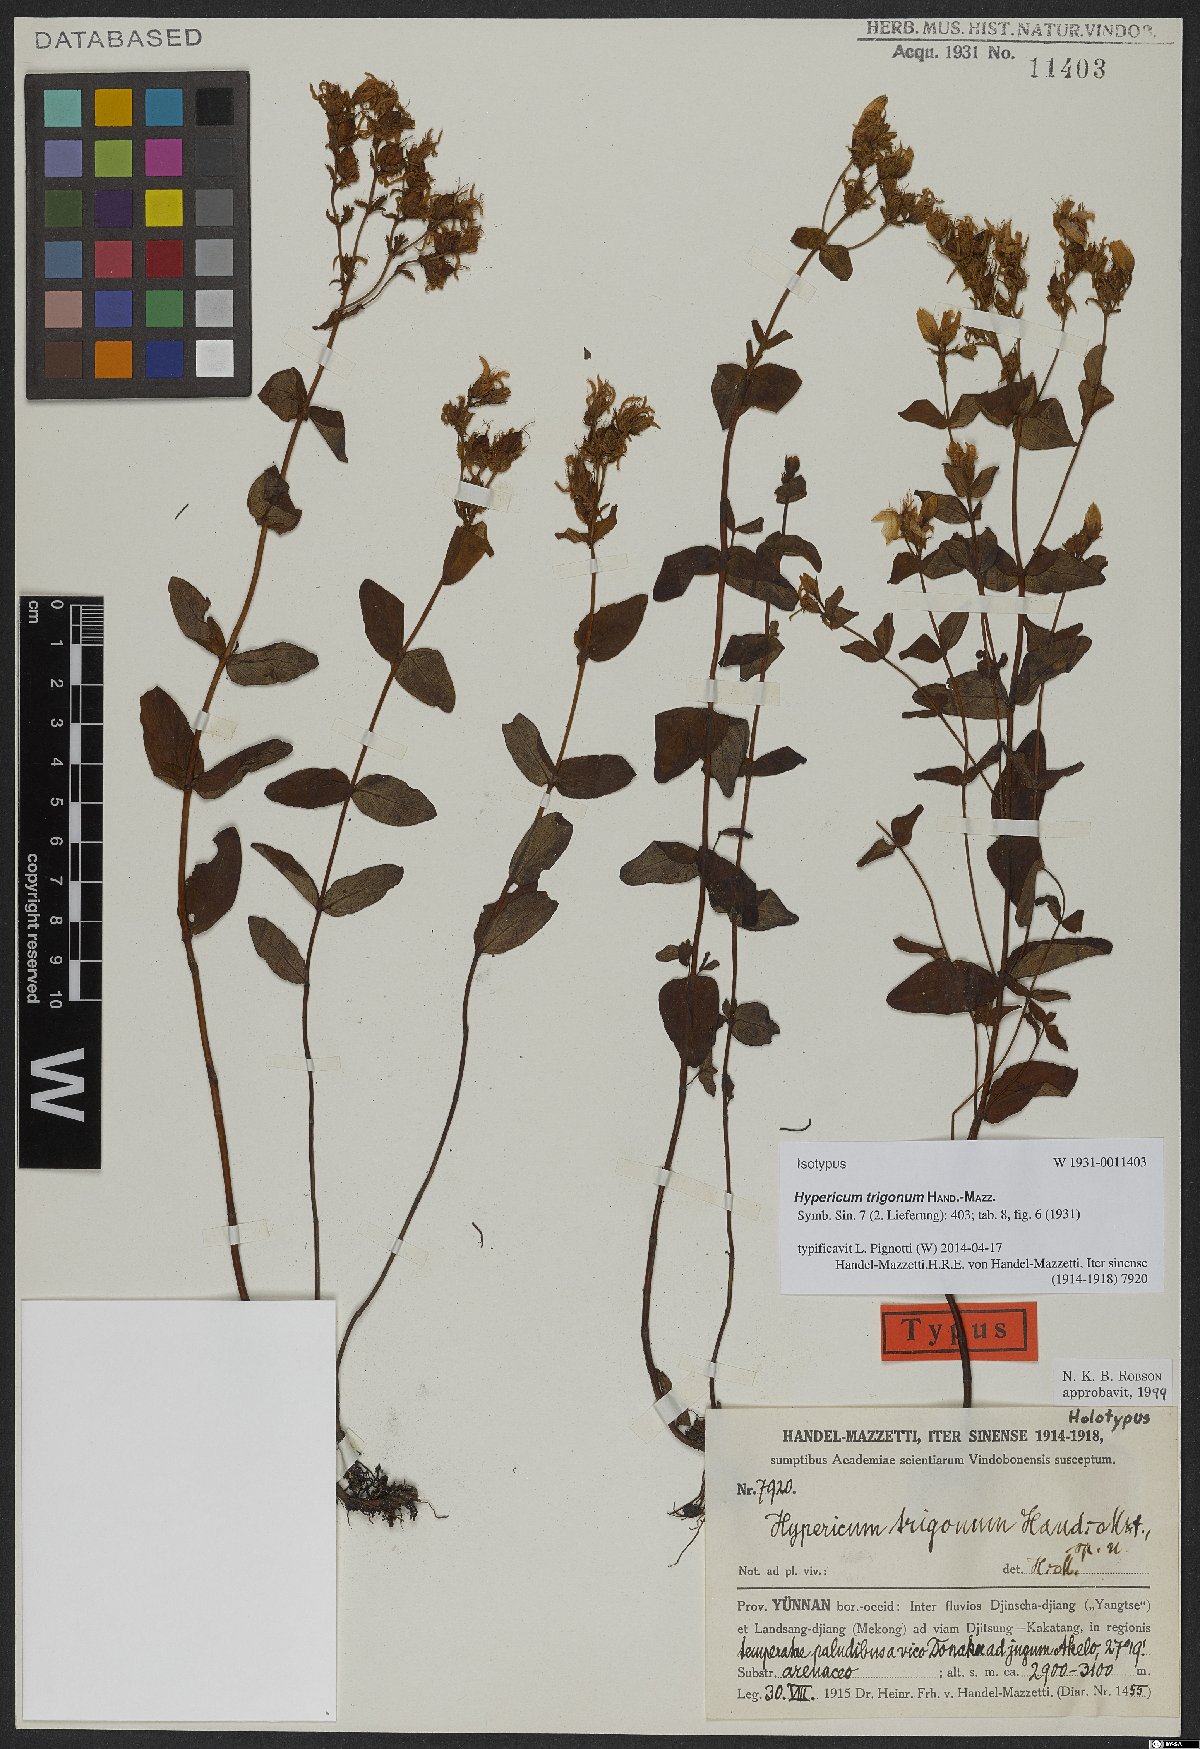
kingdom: Plantae
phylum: Tracheophyta
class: Magnoliopsida
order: Malpighiales
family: Hypericaceae
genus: Hypericum
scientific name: Hypericum trigonum
